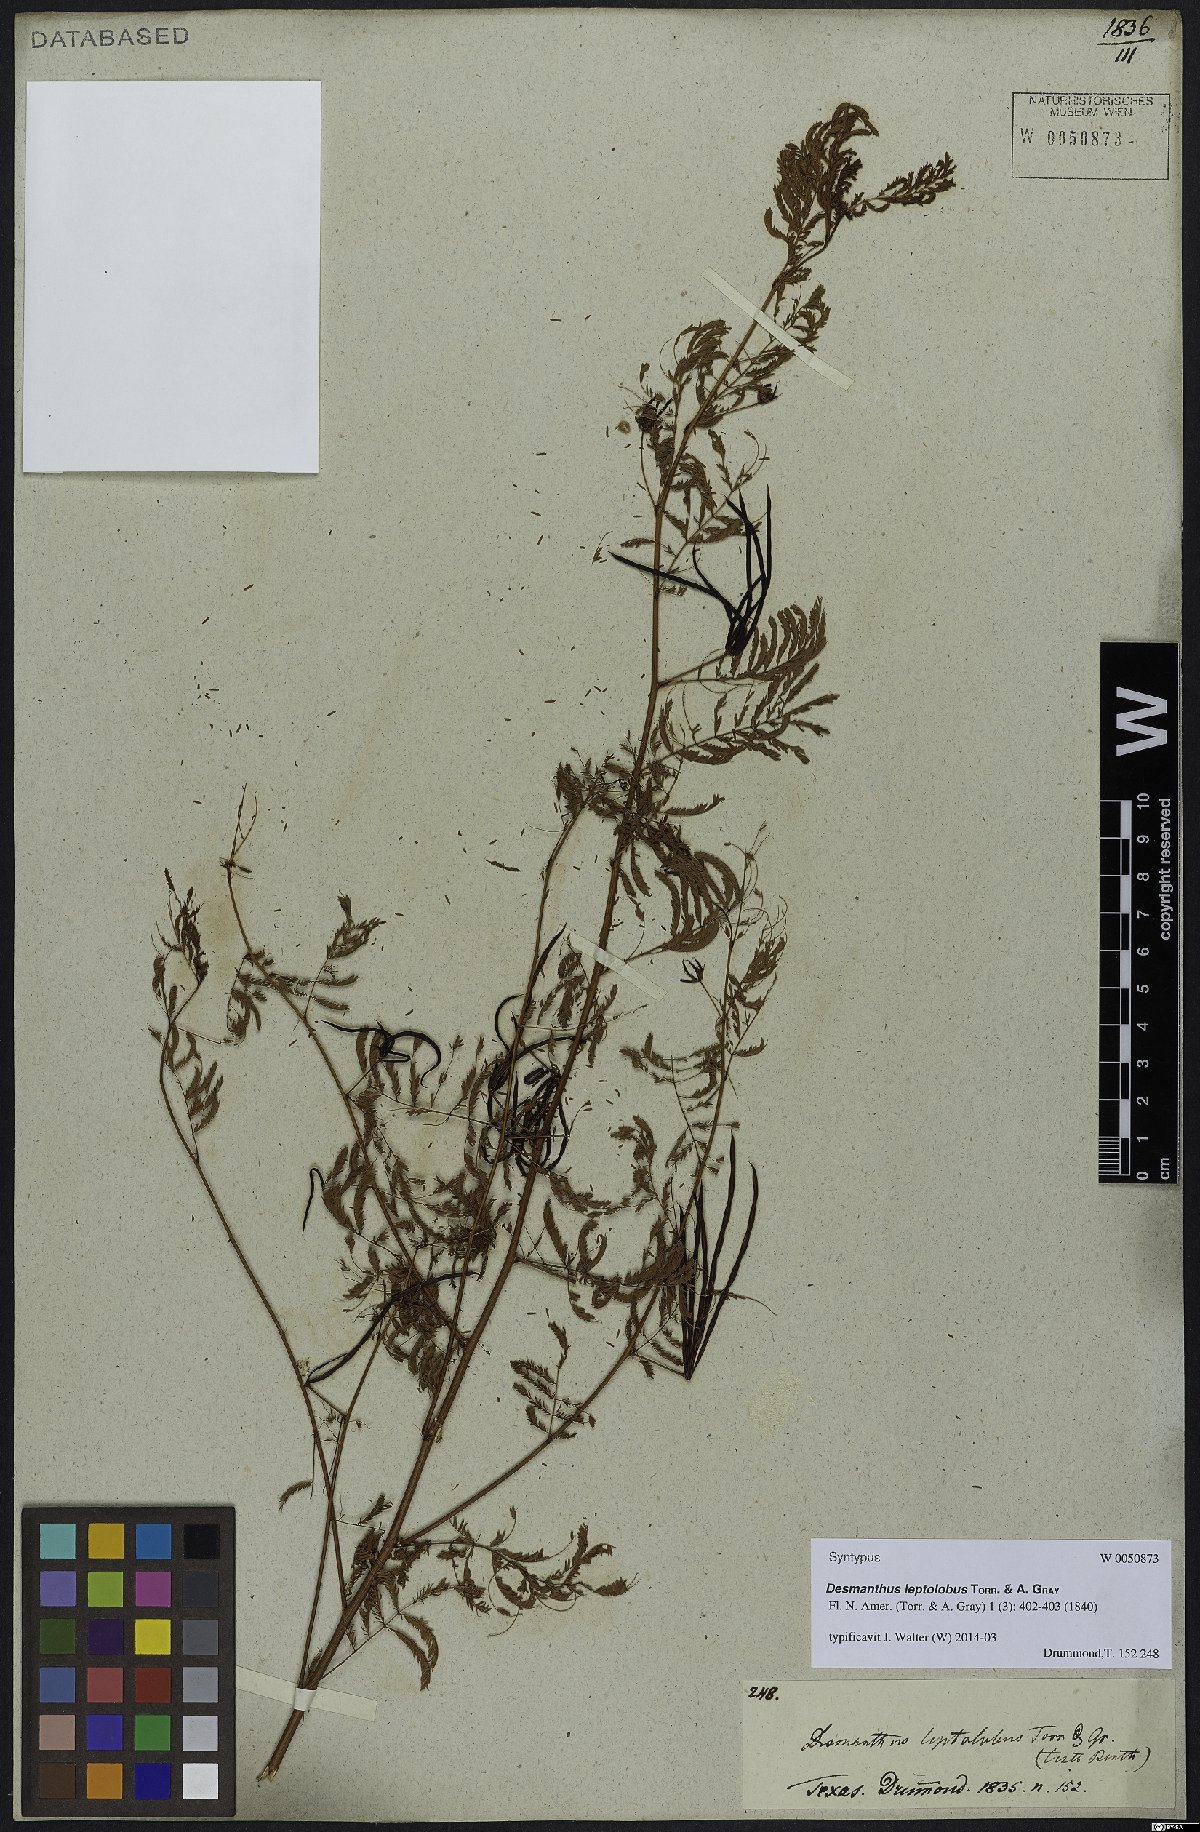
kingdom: Plantae
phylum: Tracheophyta
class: Magnoliopsida
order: Fabales
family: Fabaceae
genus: Desmanthus
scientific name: Desmanthus leptolobus
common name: Prairie-mimosa
